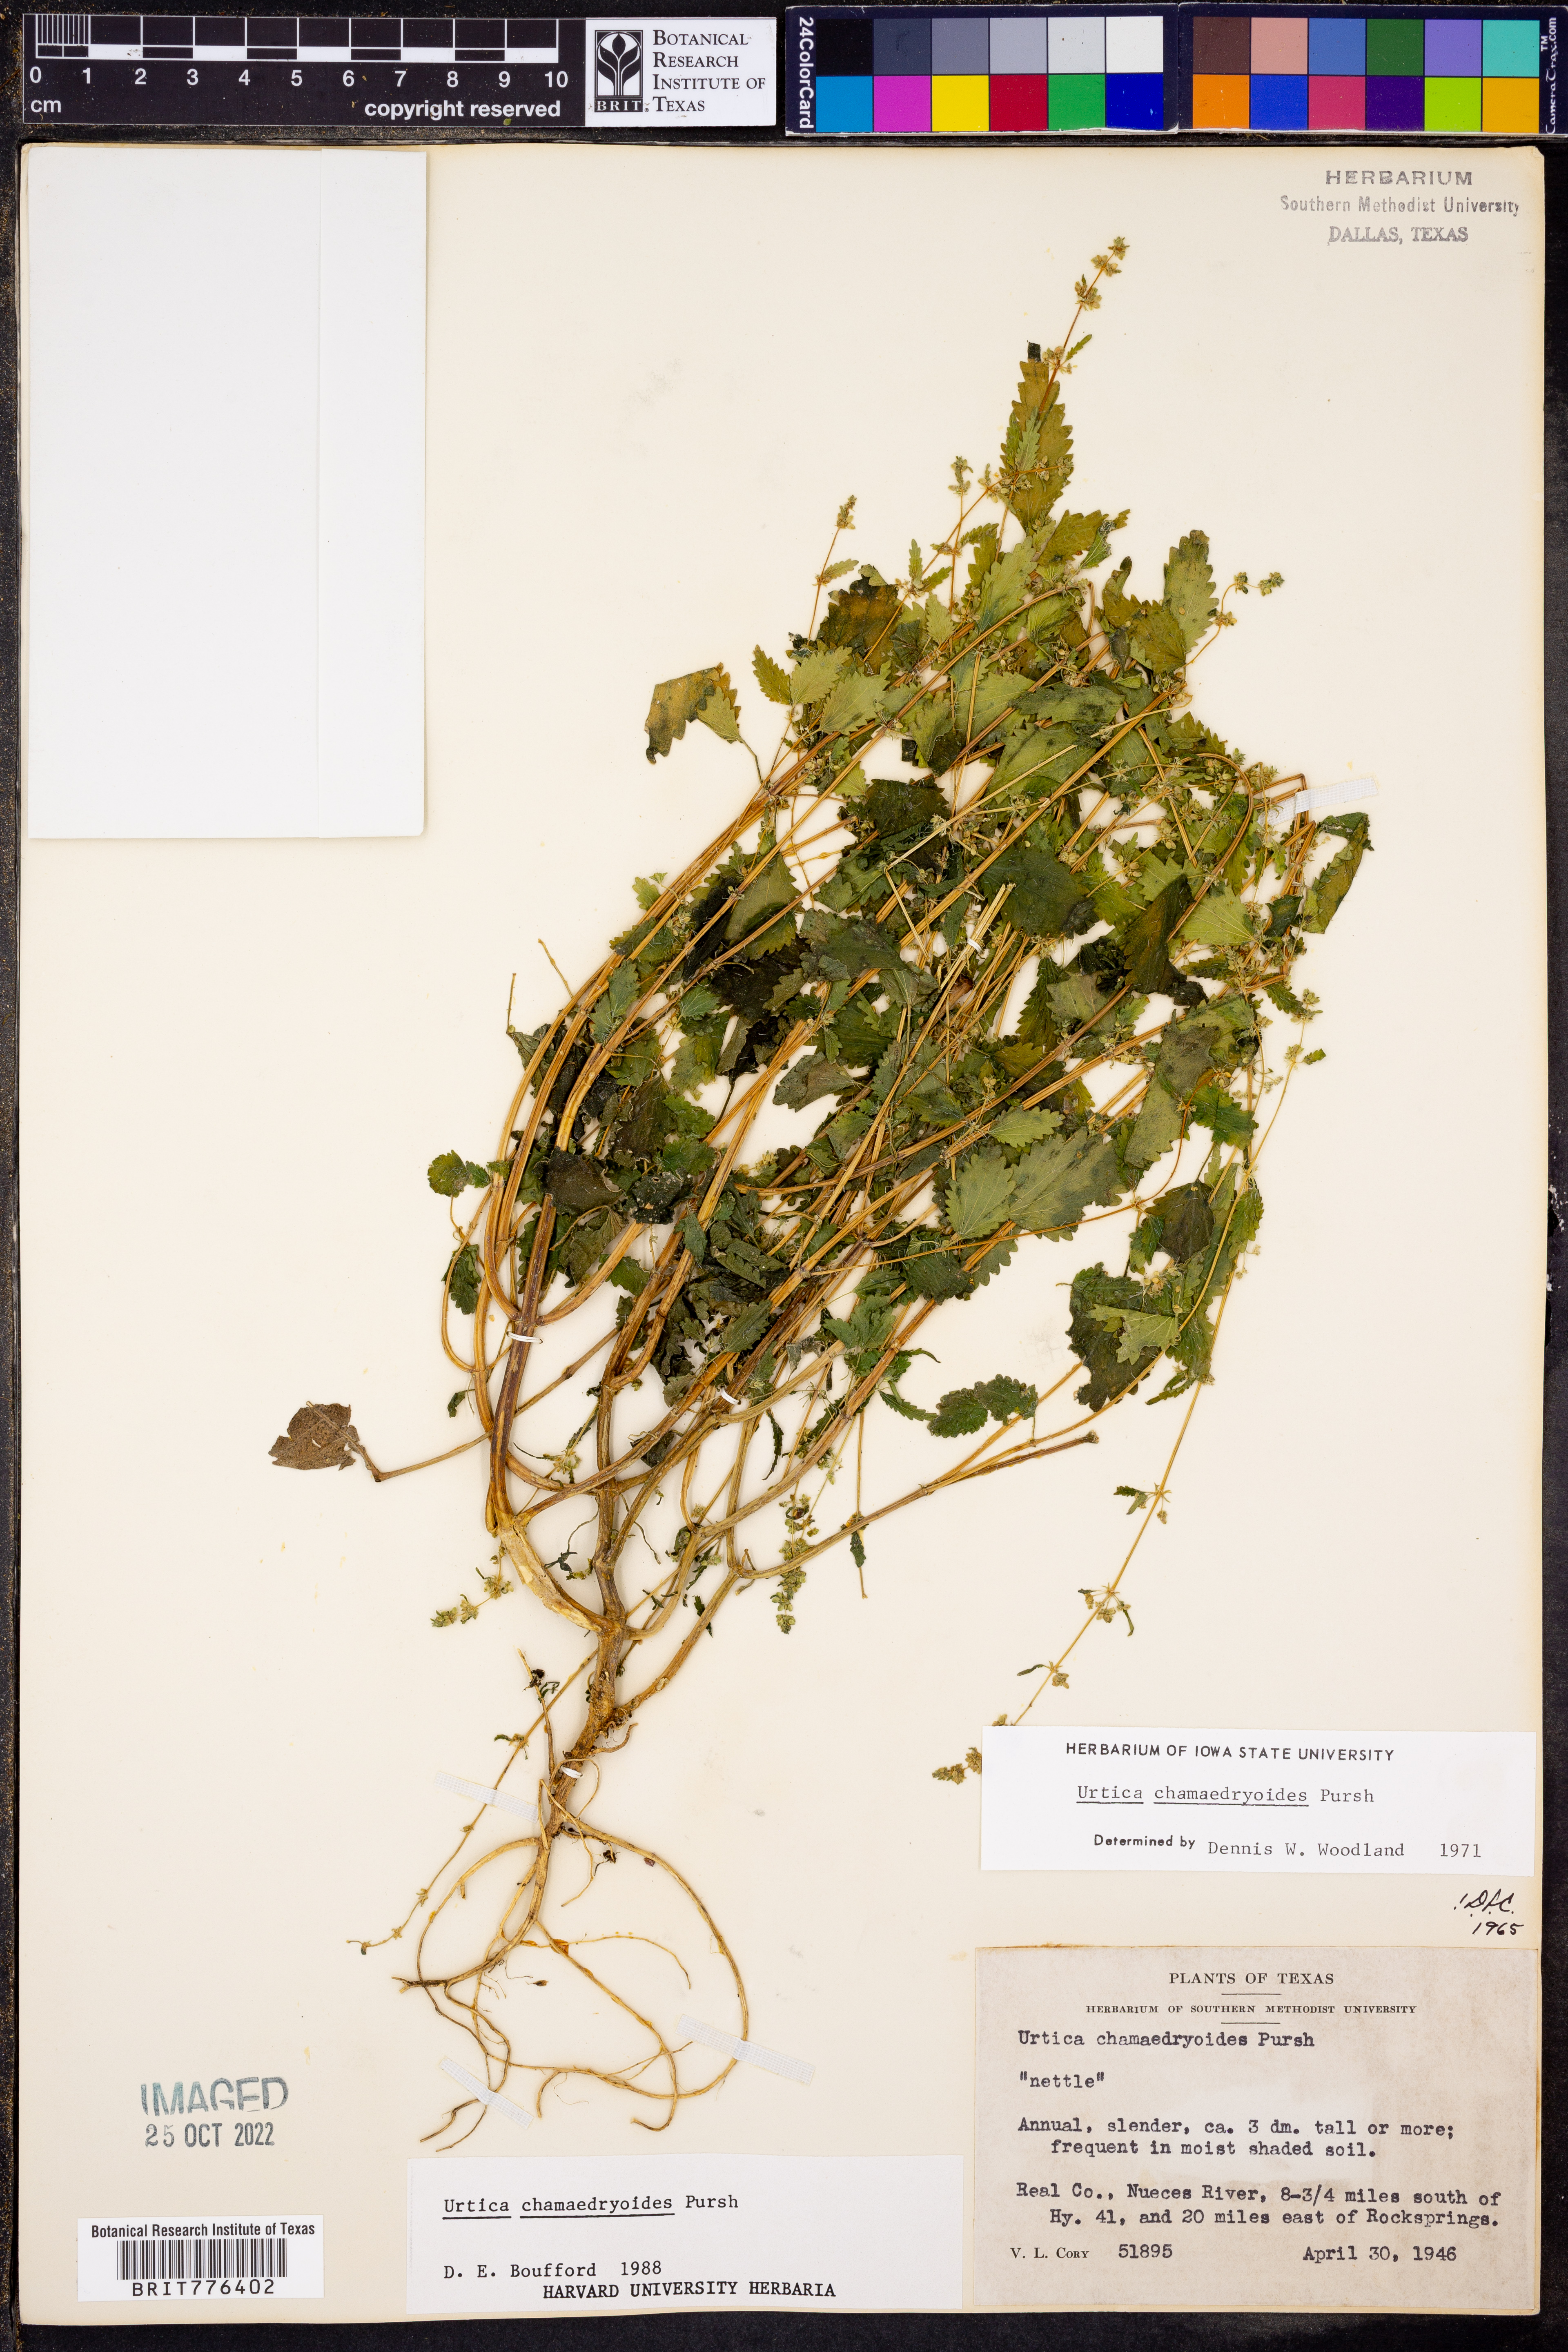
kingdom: Plantae
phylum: Tracheophyta
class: Magnoliopsida
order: Rosales
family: Urticaceae
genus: Urtica
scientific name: Urtica chamaedryoides
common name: Heart-leaf nettle
